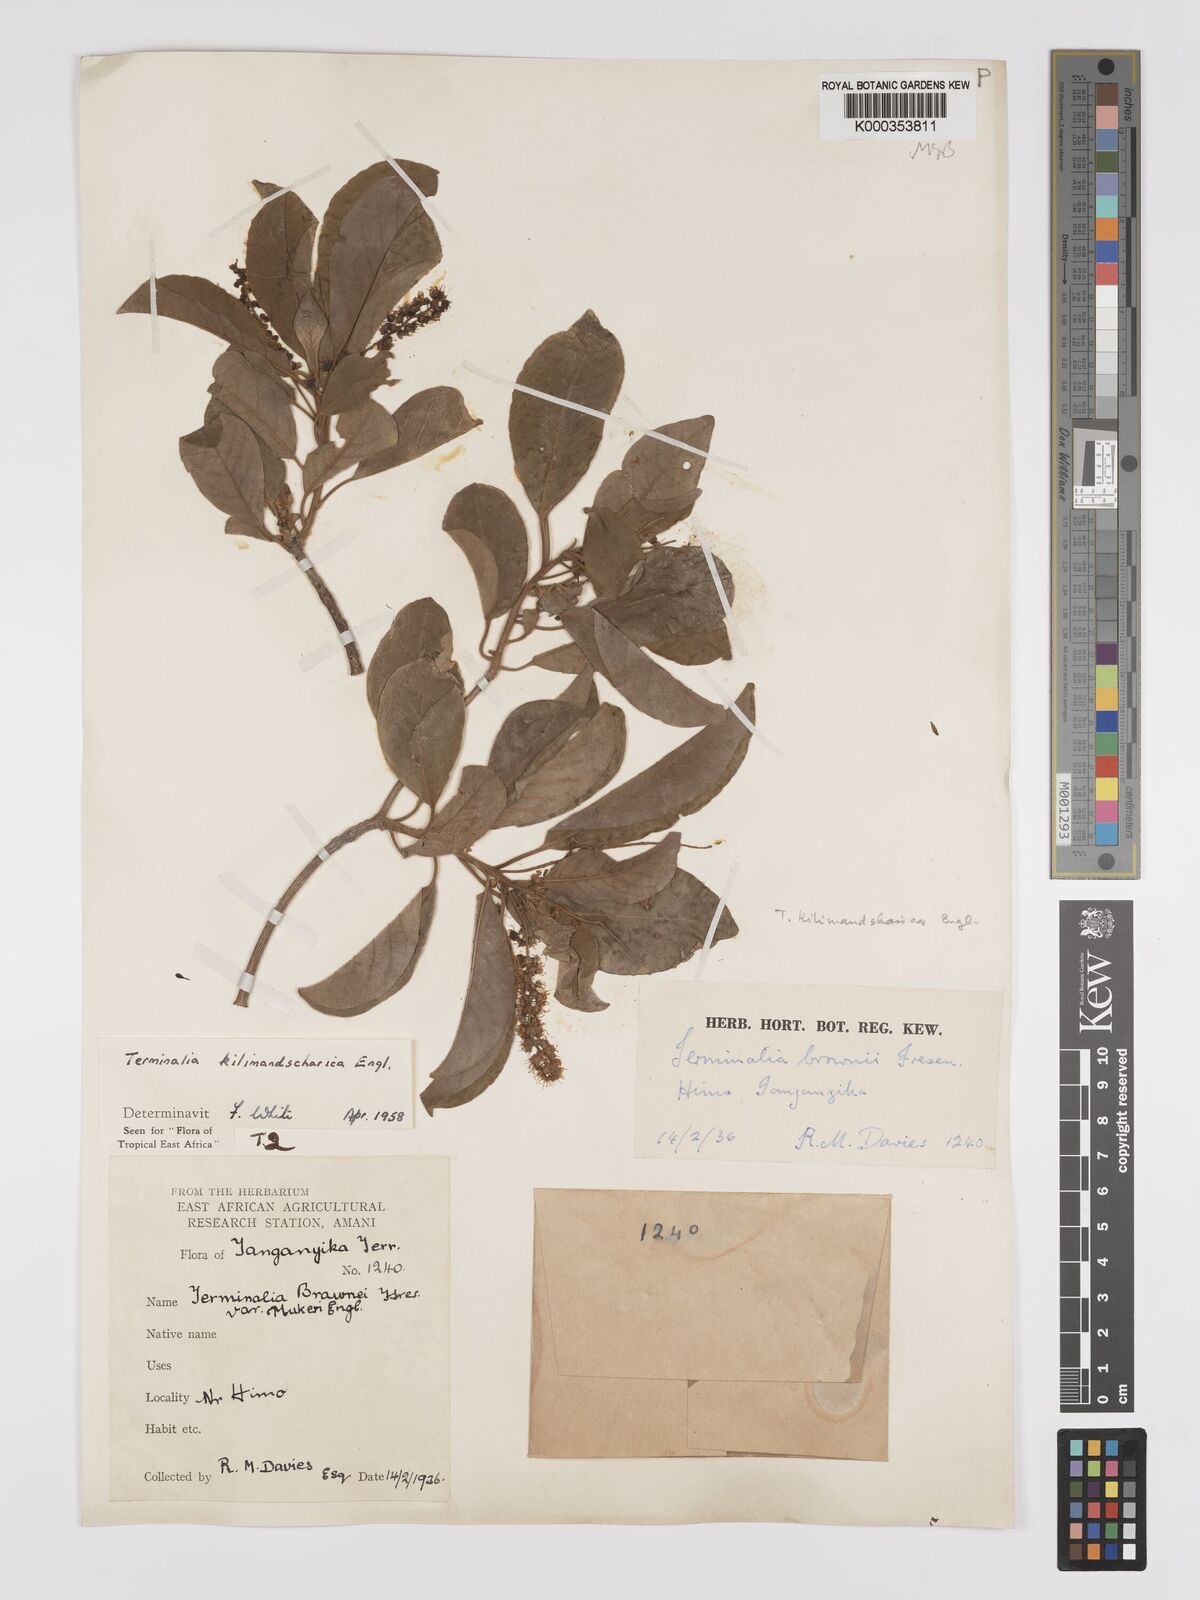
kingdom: Plantae
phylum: Tracheophyta
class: Magnoliopsida
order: Myrtales
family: Combretaceae
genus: Terminalia
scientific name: Terminalia kilimandscharica
